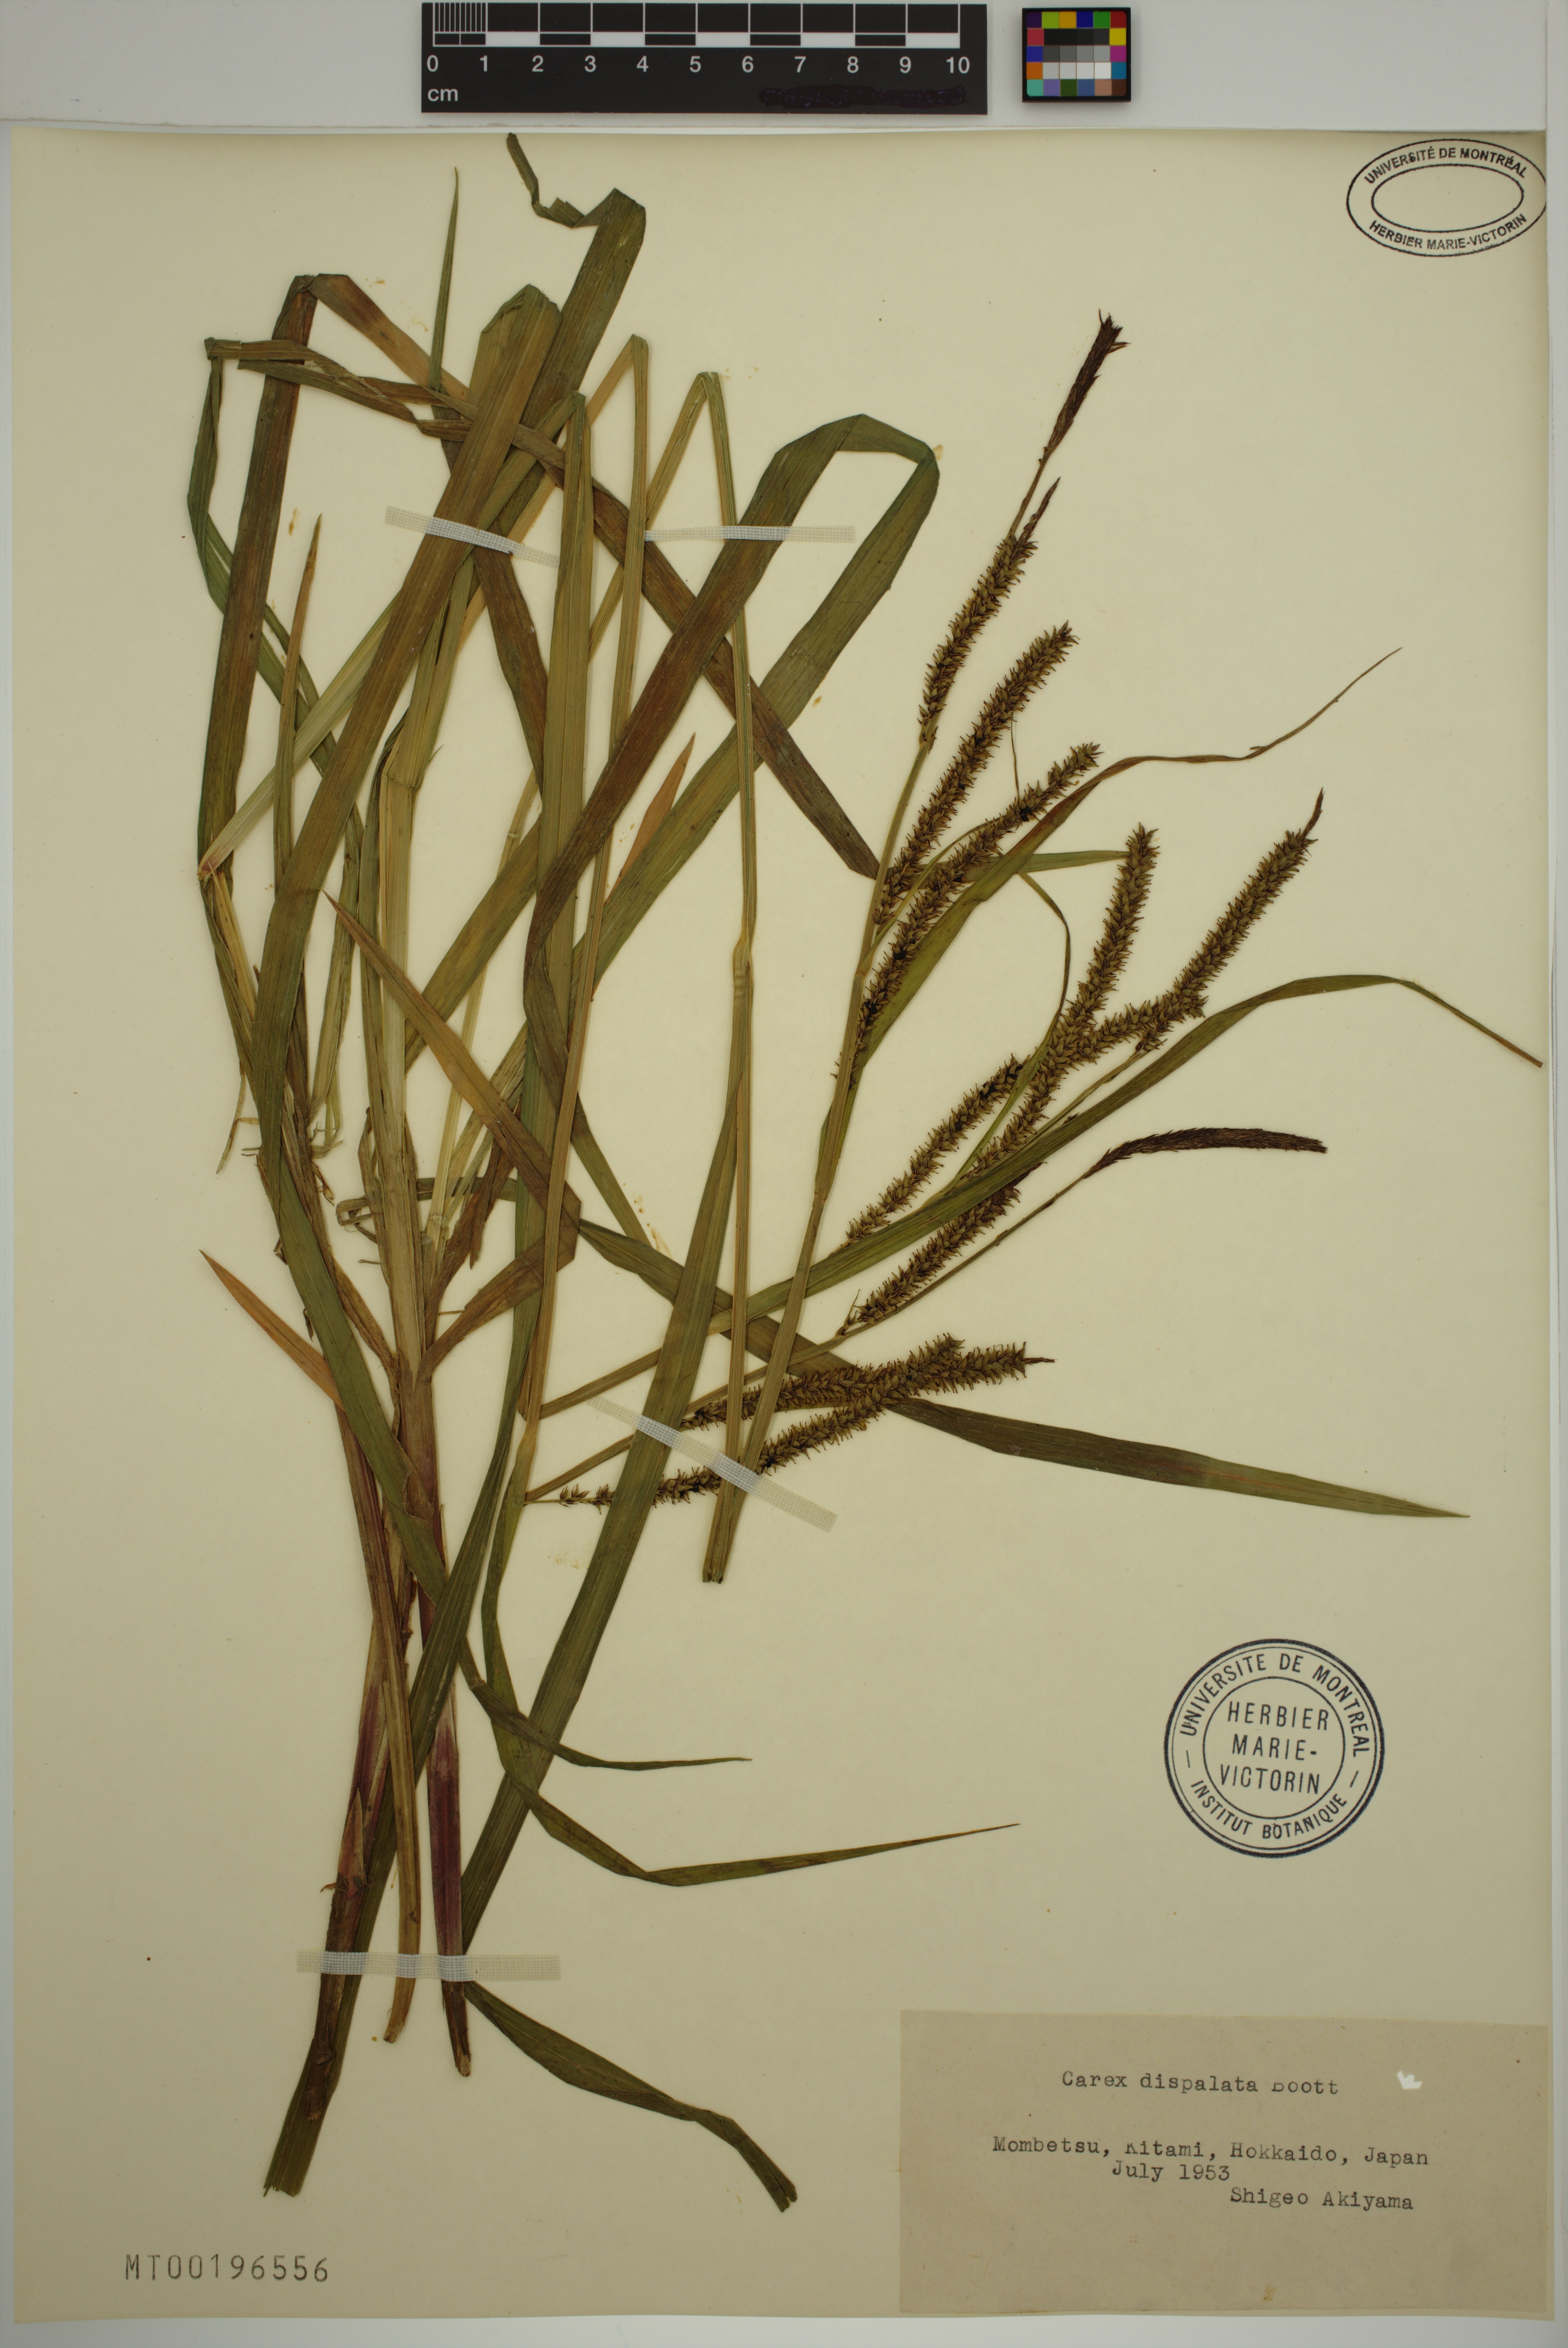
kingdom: Plantae
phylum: Tracheophyta
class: Liliopsida
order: Poales
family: Cyperaceae
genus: Carex
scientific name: Carex dispalata
